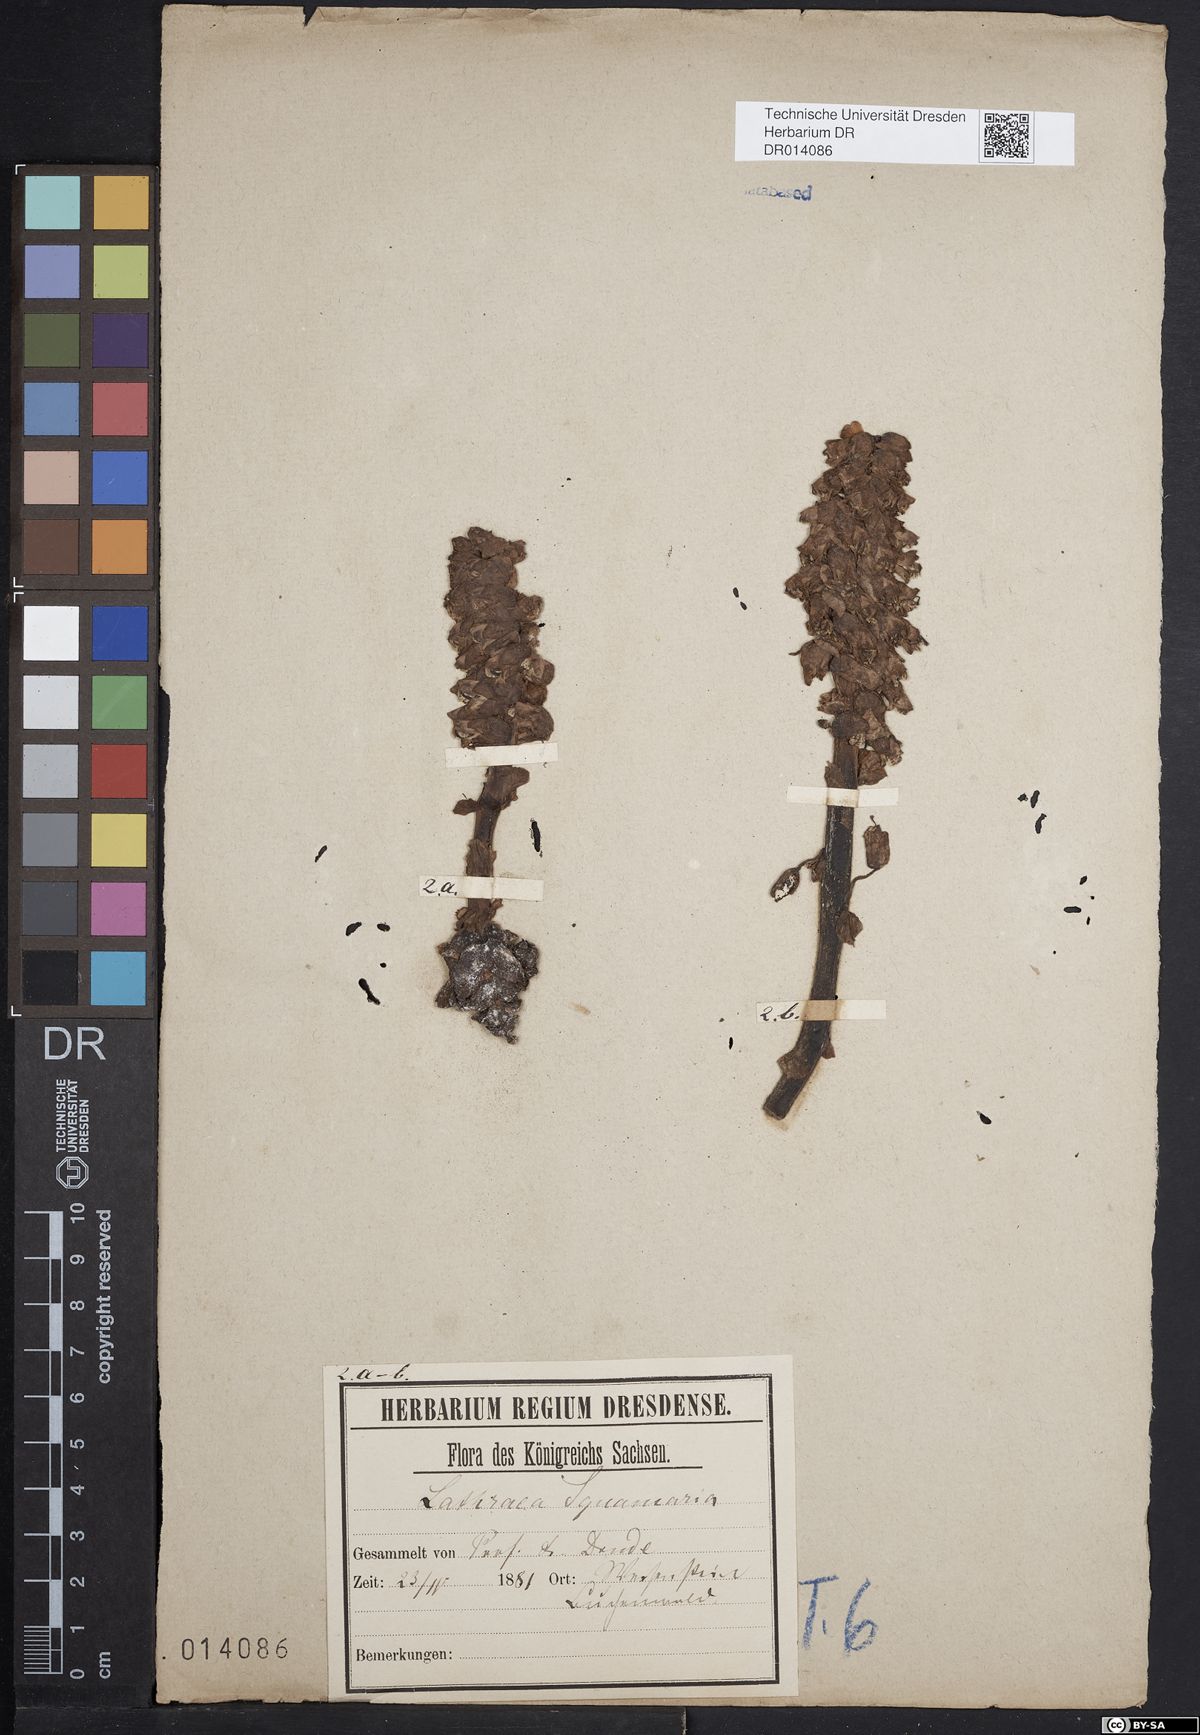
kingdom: Plantae
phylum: Tracheophyta
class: Magnoliopsida
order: Lamiales
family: Orobanchaceae
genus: Lathraea
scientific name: Lathraea squamaria
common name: Toothwort
